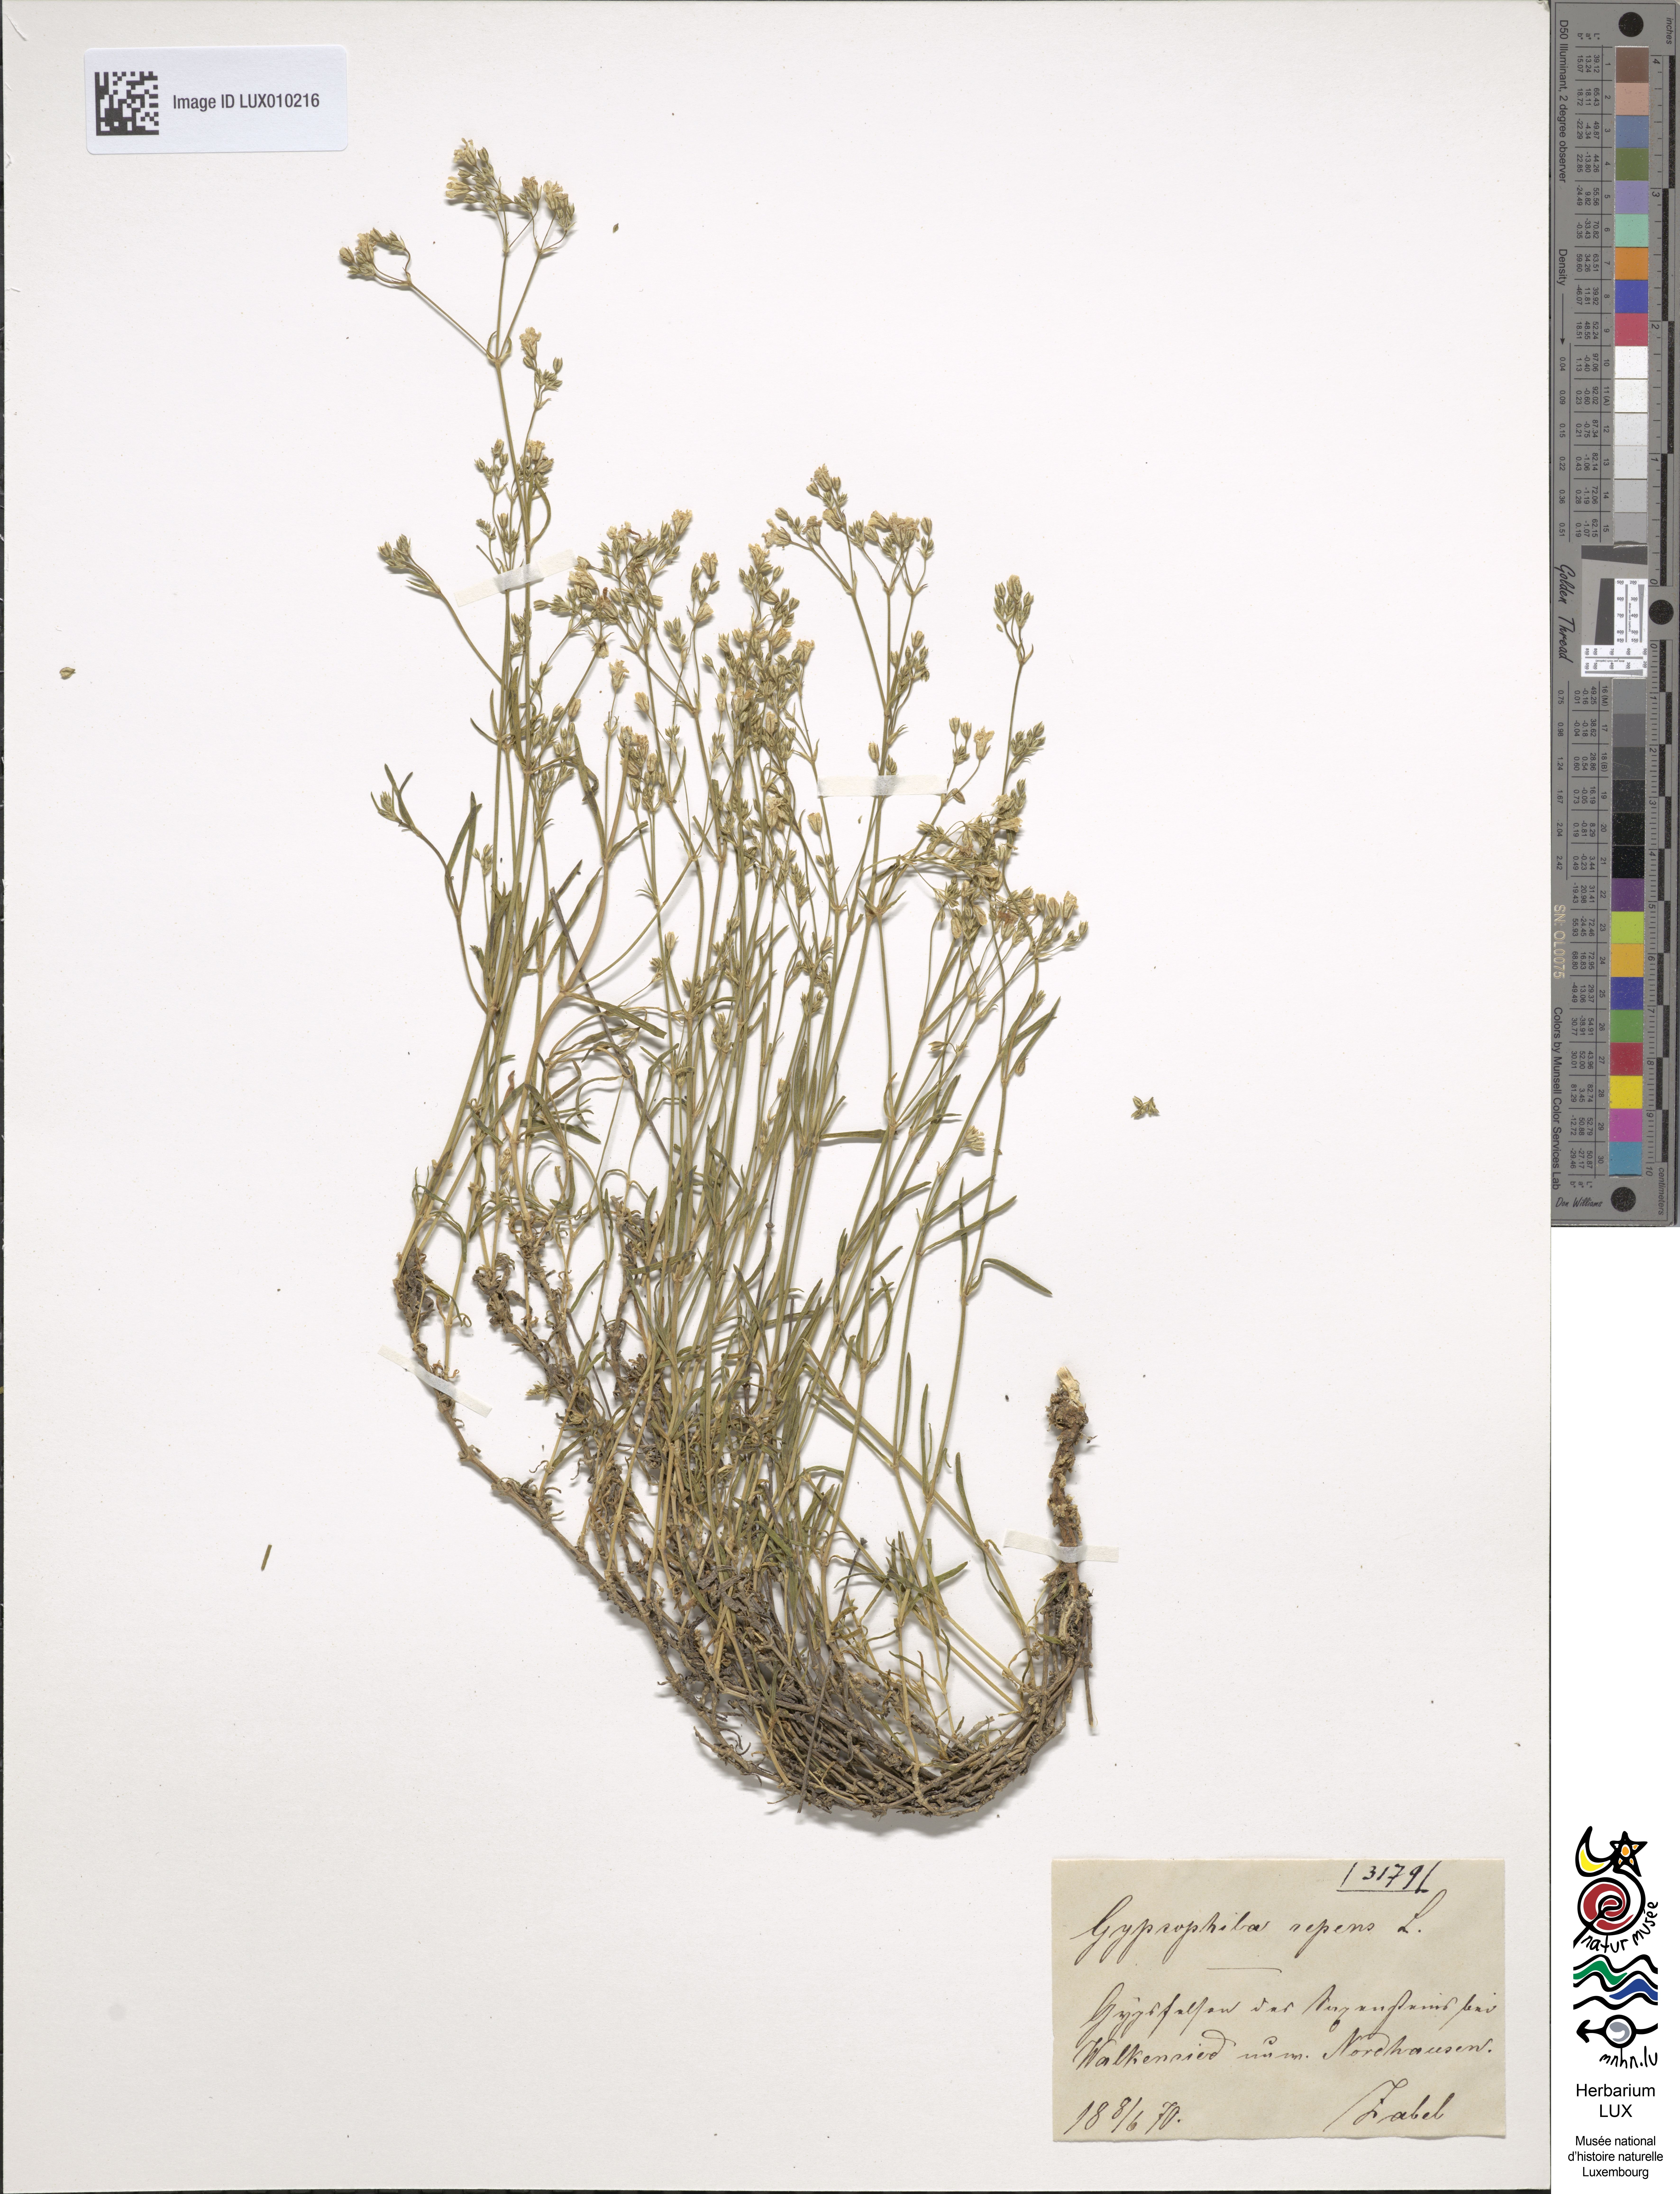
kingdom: Plantae
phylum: Tracheophyta
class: Magnoliopsida
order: Caryophyllales
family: Caryophyllaceae
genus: Gypsophila
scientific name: Gypsophila repens
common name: Creeping baby's-breath
